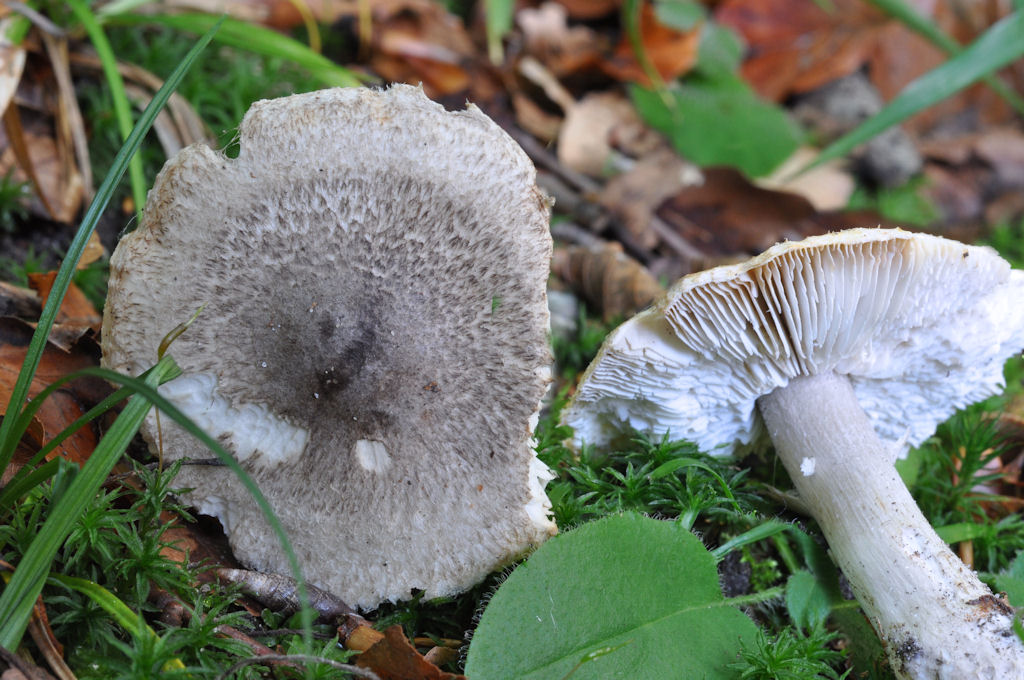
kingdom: Fungi
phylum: Basidiomycota
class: Agaricomycetes
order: Agaricales
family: Tricholomataceae
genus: Tricholoma
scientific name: Tricholoma atrosquamosum
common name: sortskællet ridderhat
